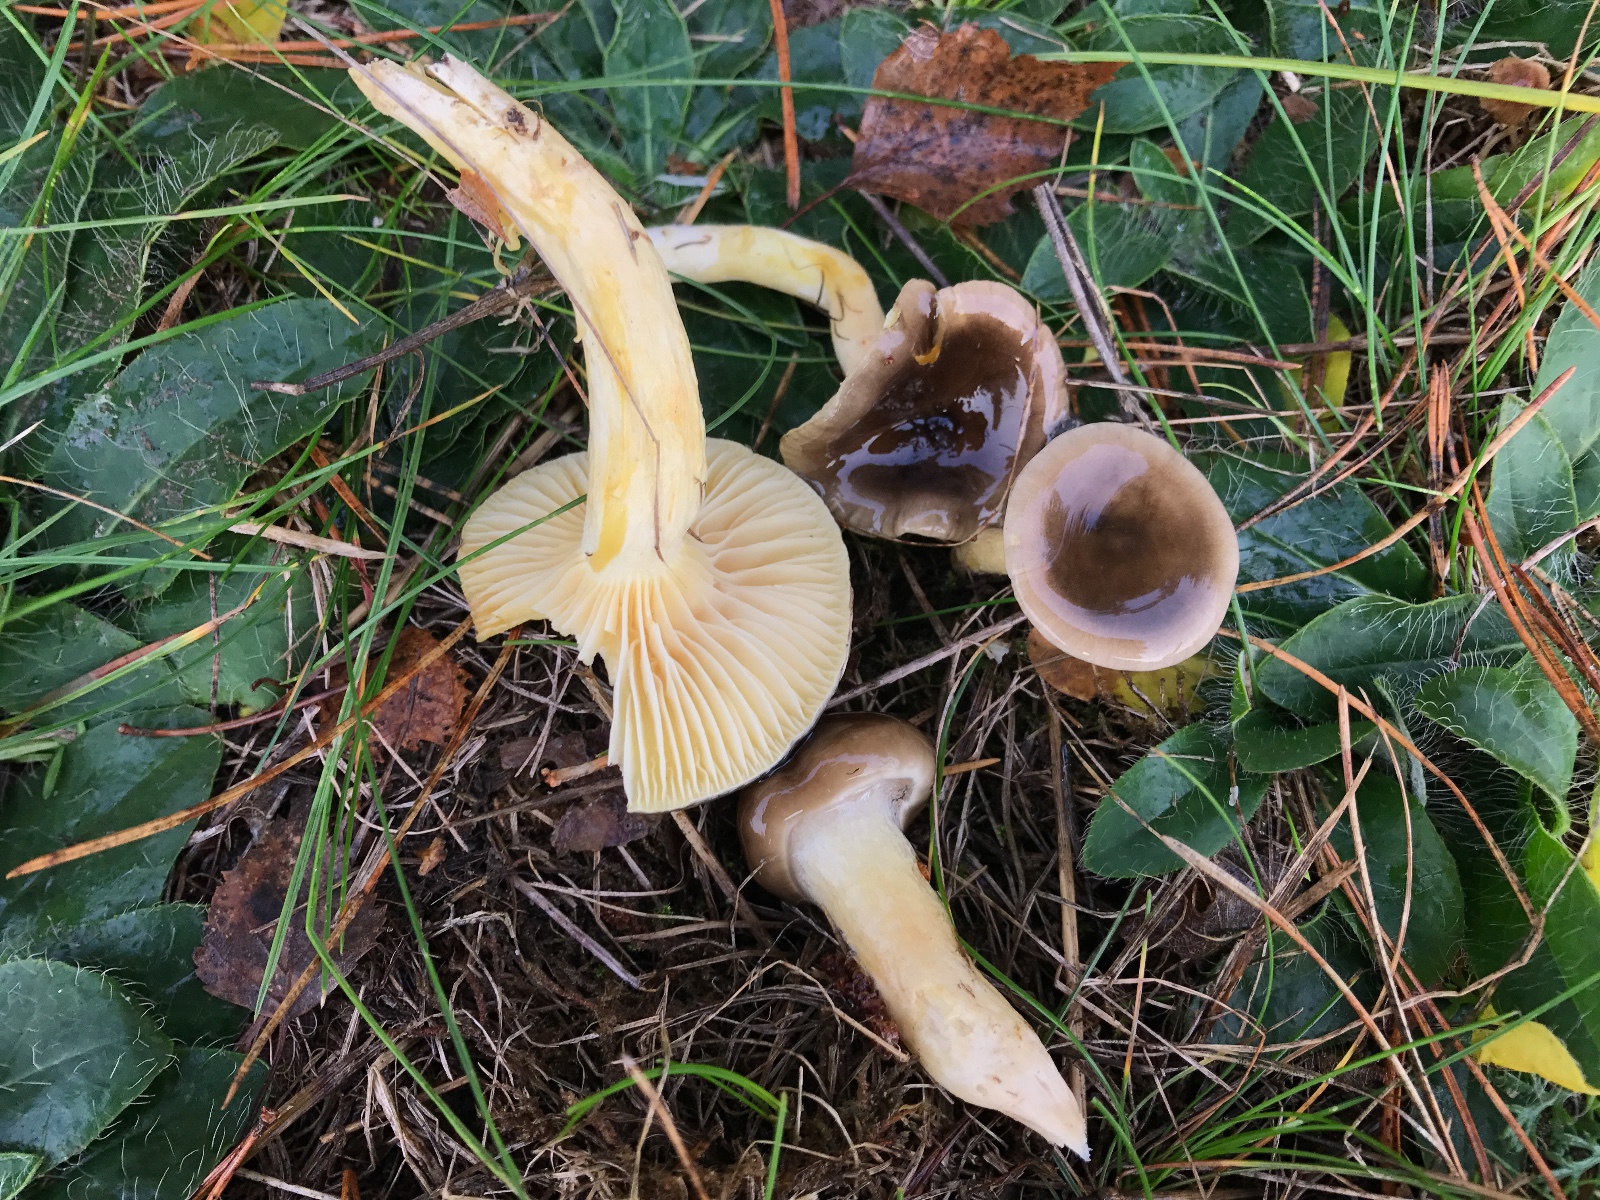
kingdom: Fungi
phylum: Basidiomycota
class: Agaricomycetes
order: Agaricales
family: Hygrophoraceae
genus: Hygrophorus
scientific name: Hygrophorus hypothejus
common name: frost-sneglehat
